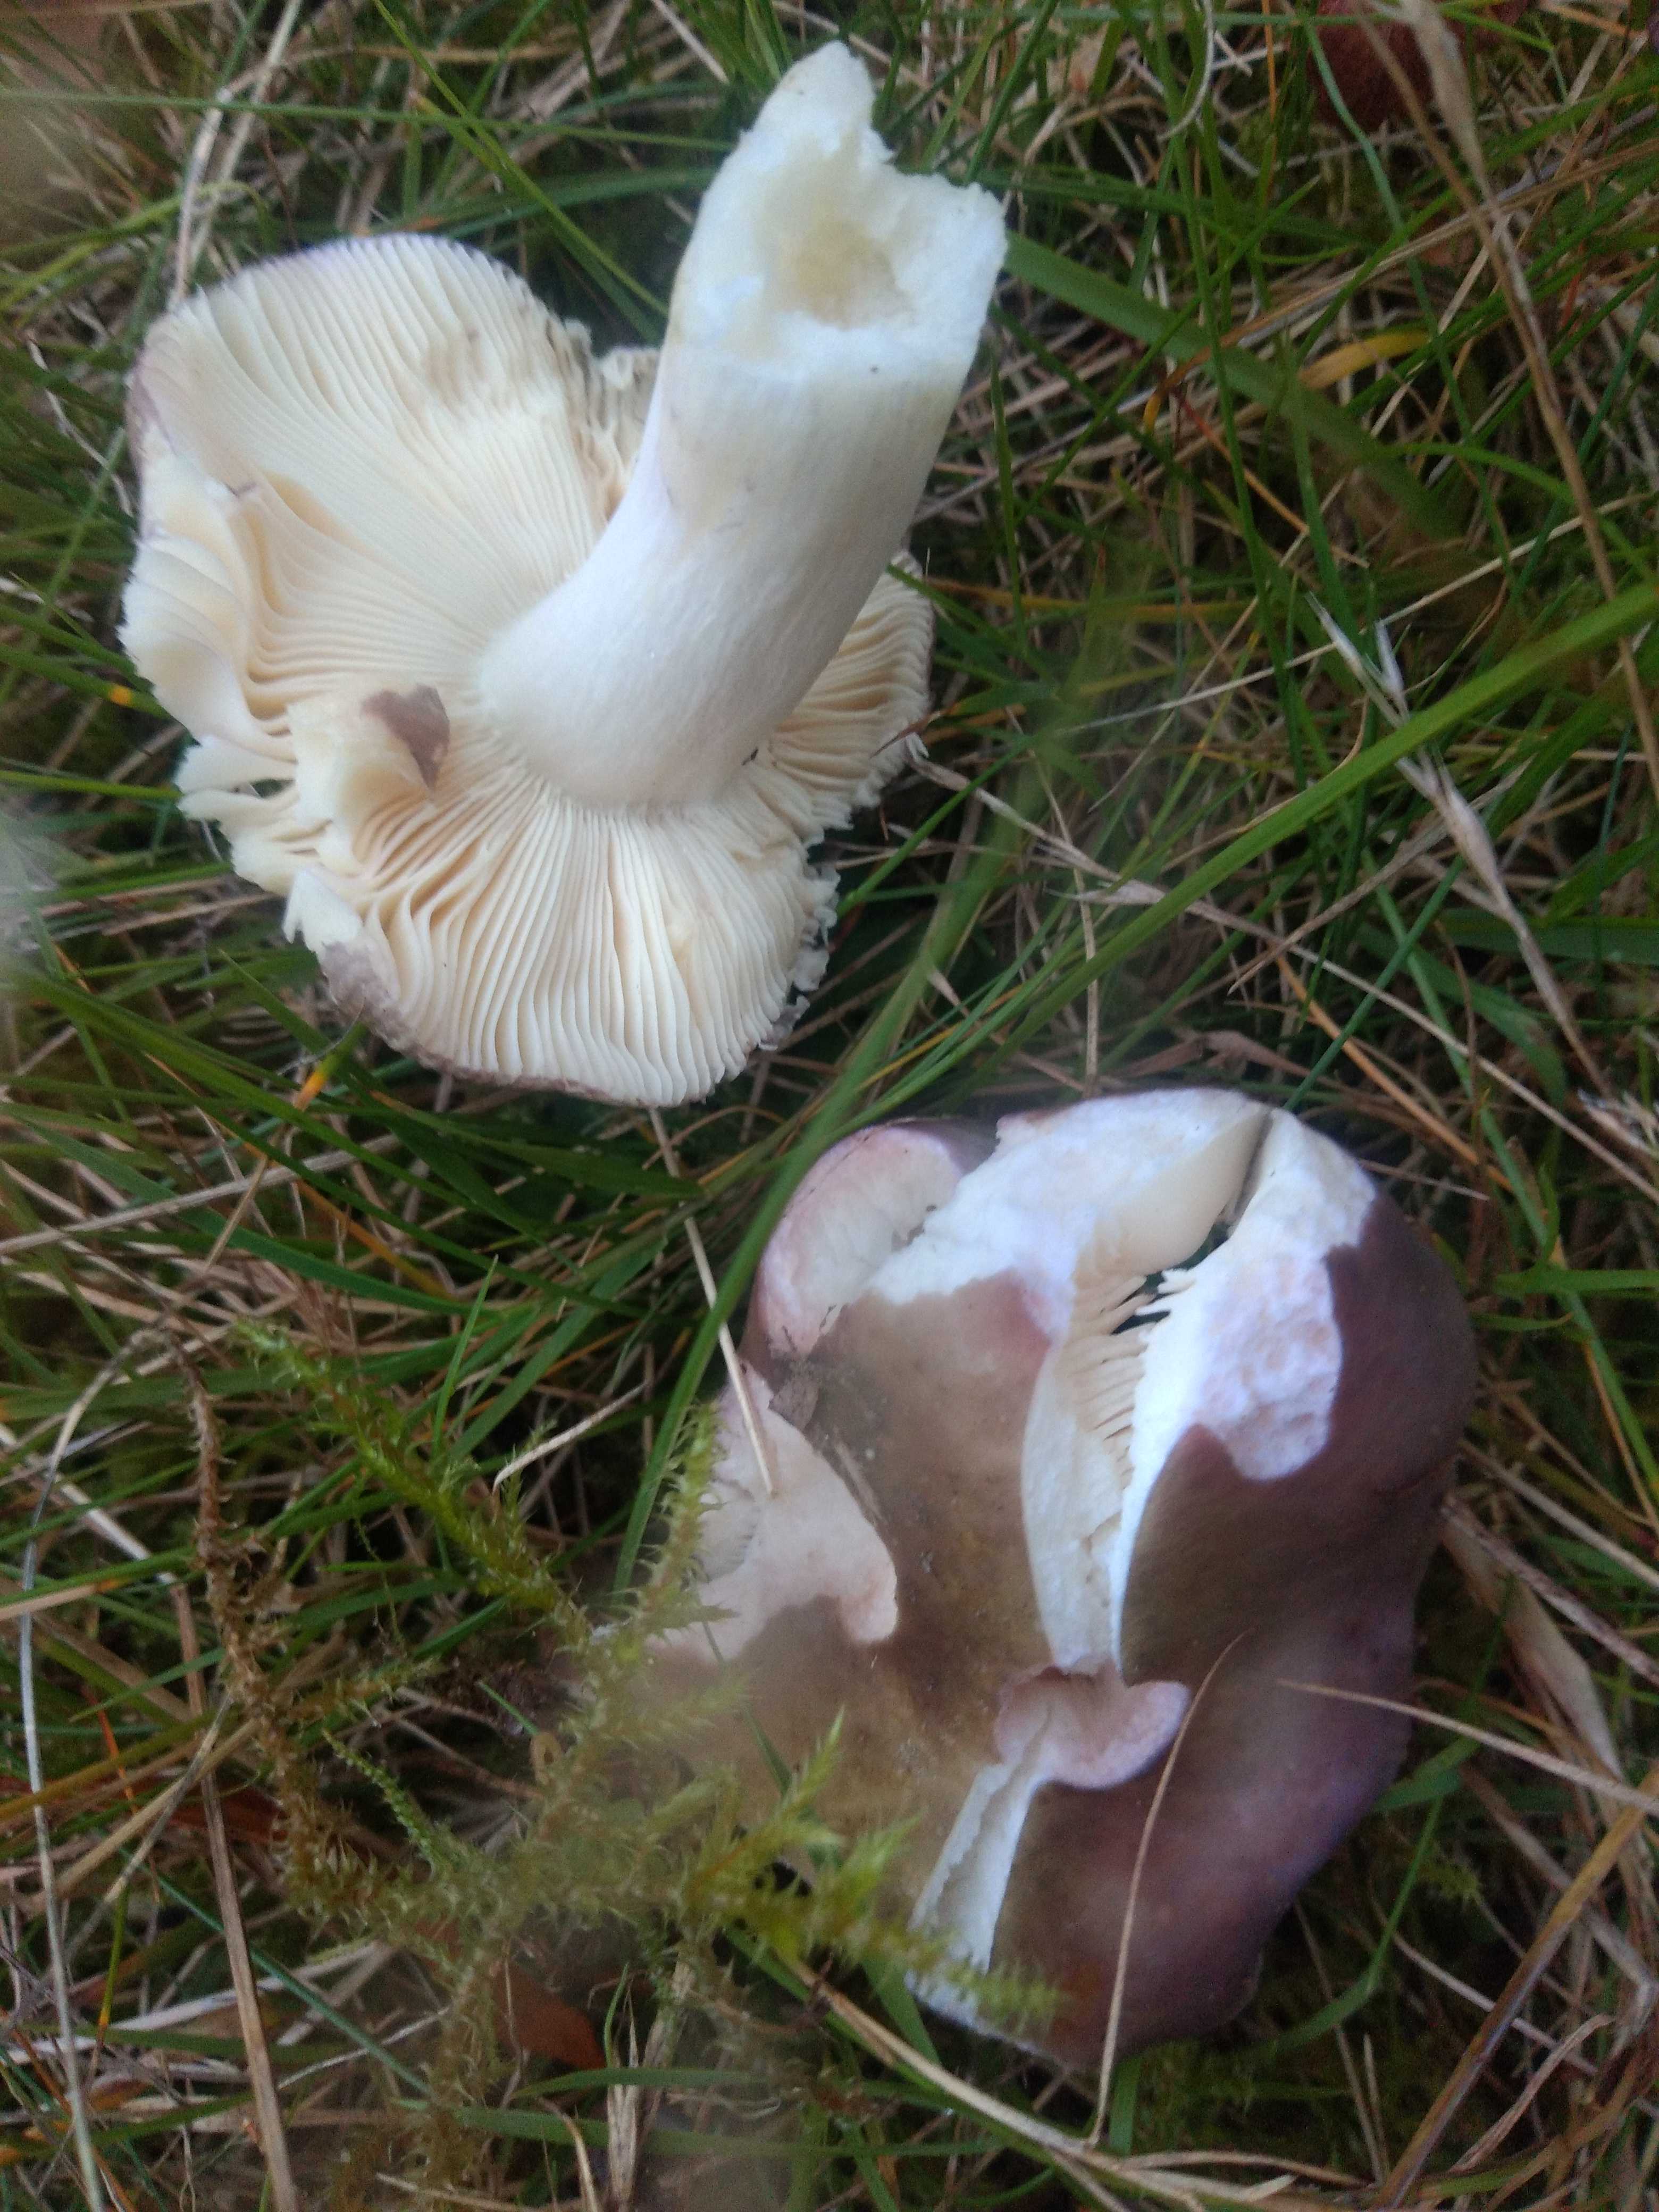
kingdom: Fungi
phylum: Basidiomycota
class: Agaricomycetes
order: Russulales
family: Russulaceae
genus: Russula
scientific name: Russula
